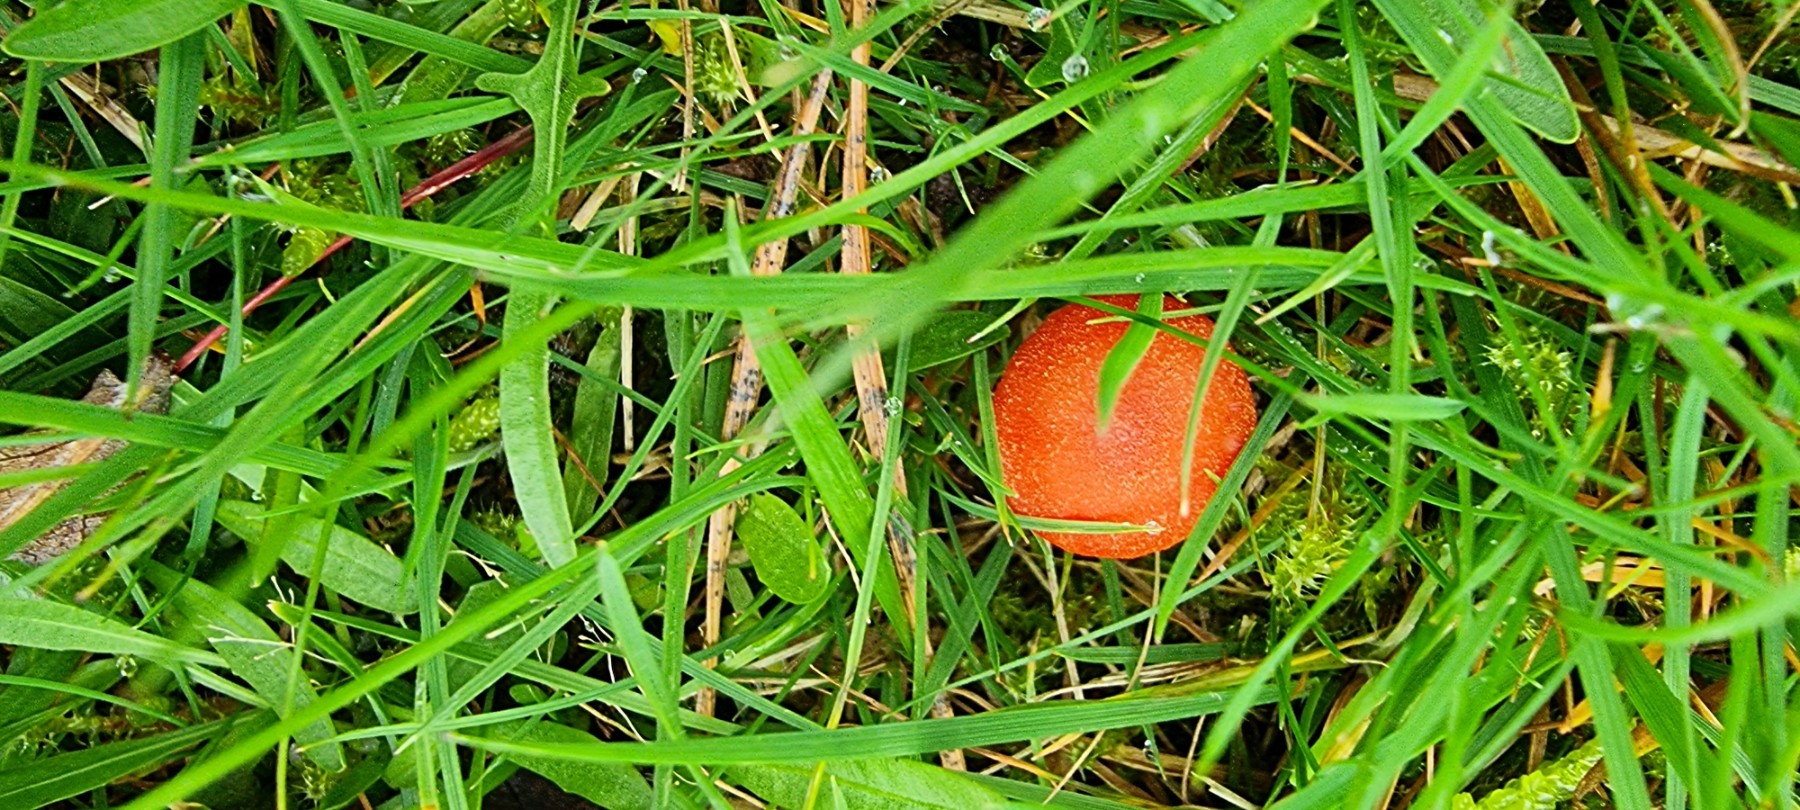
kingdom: Fungi
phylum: Basidiomycota
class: Agaricomycetes
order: Agaricales
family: Hygrophoraceae
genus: Hygrocybe
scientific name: Hygrocybe miniata
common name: mønje-vokshat
